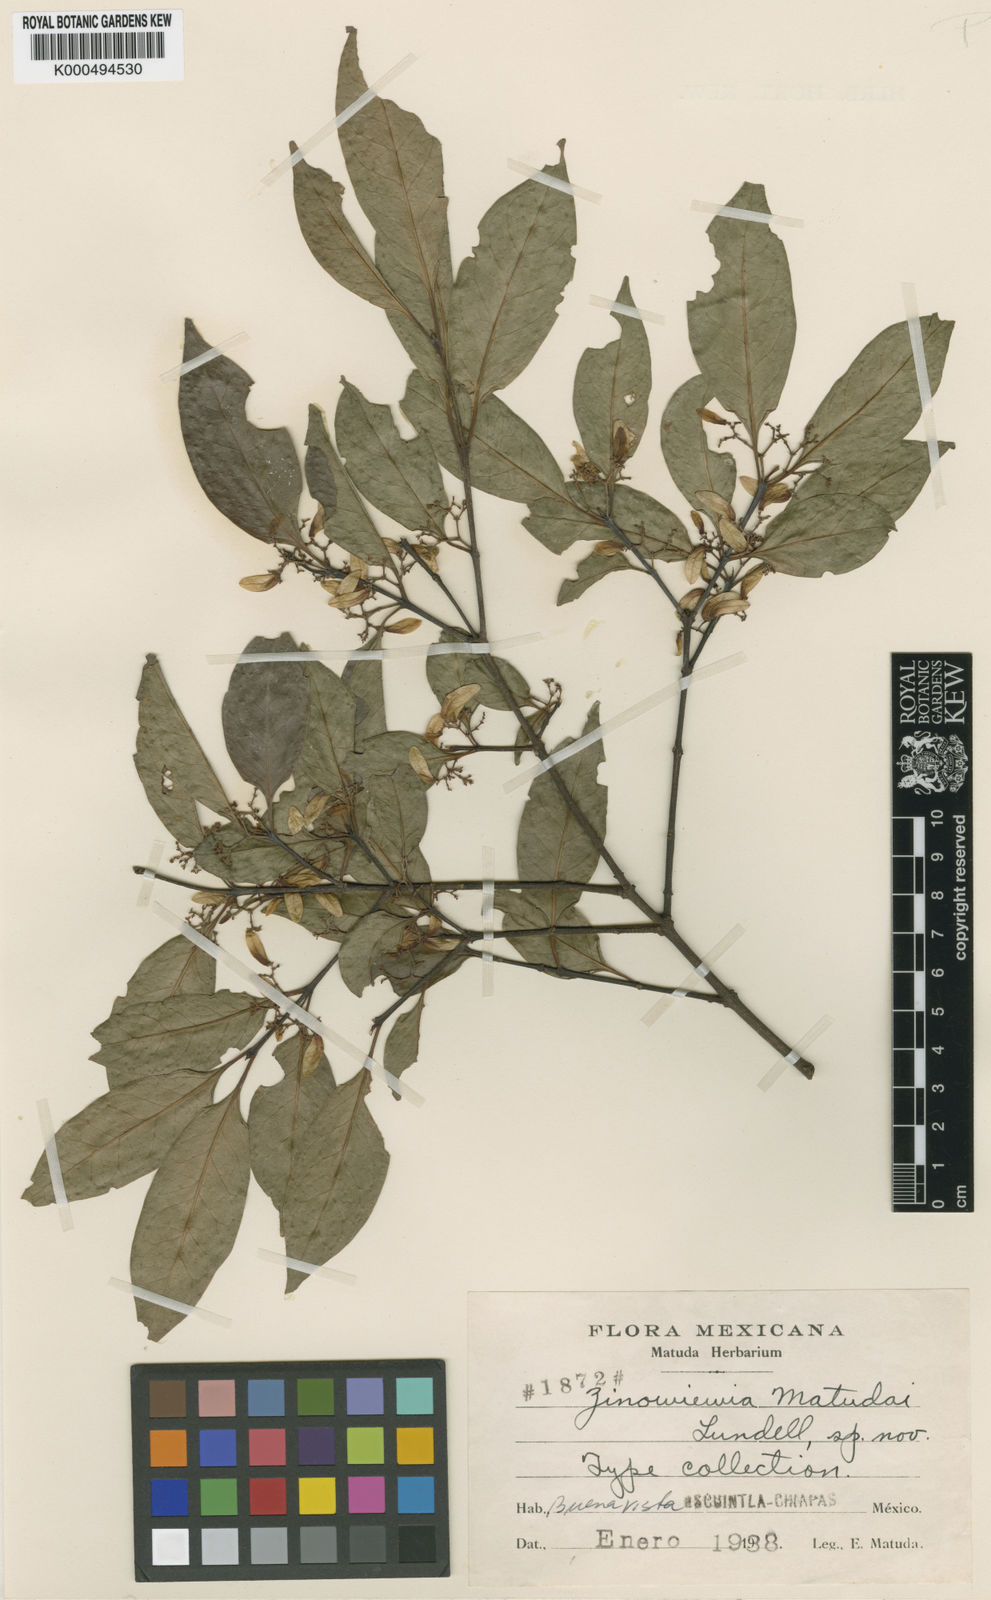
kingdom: Plantae
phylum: Tracheophyta
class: Magnoliopsida
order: Celastrales
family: Celastraceae
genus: Zinowiewia
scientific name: Zinowiewia rubra
